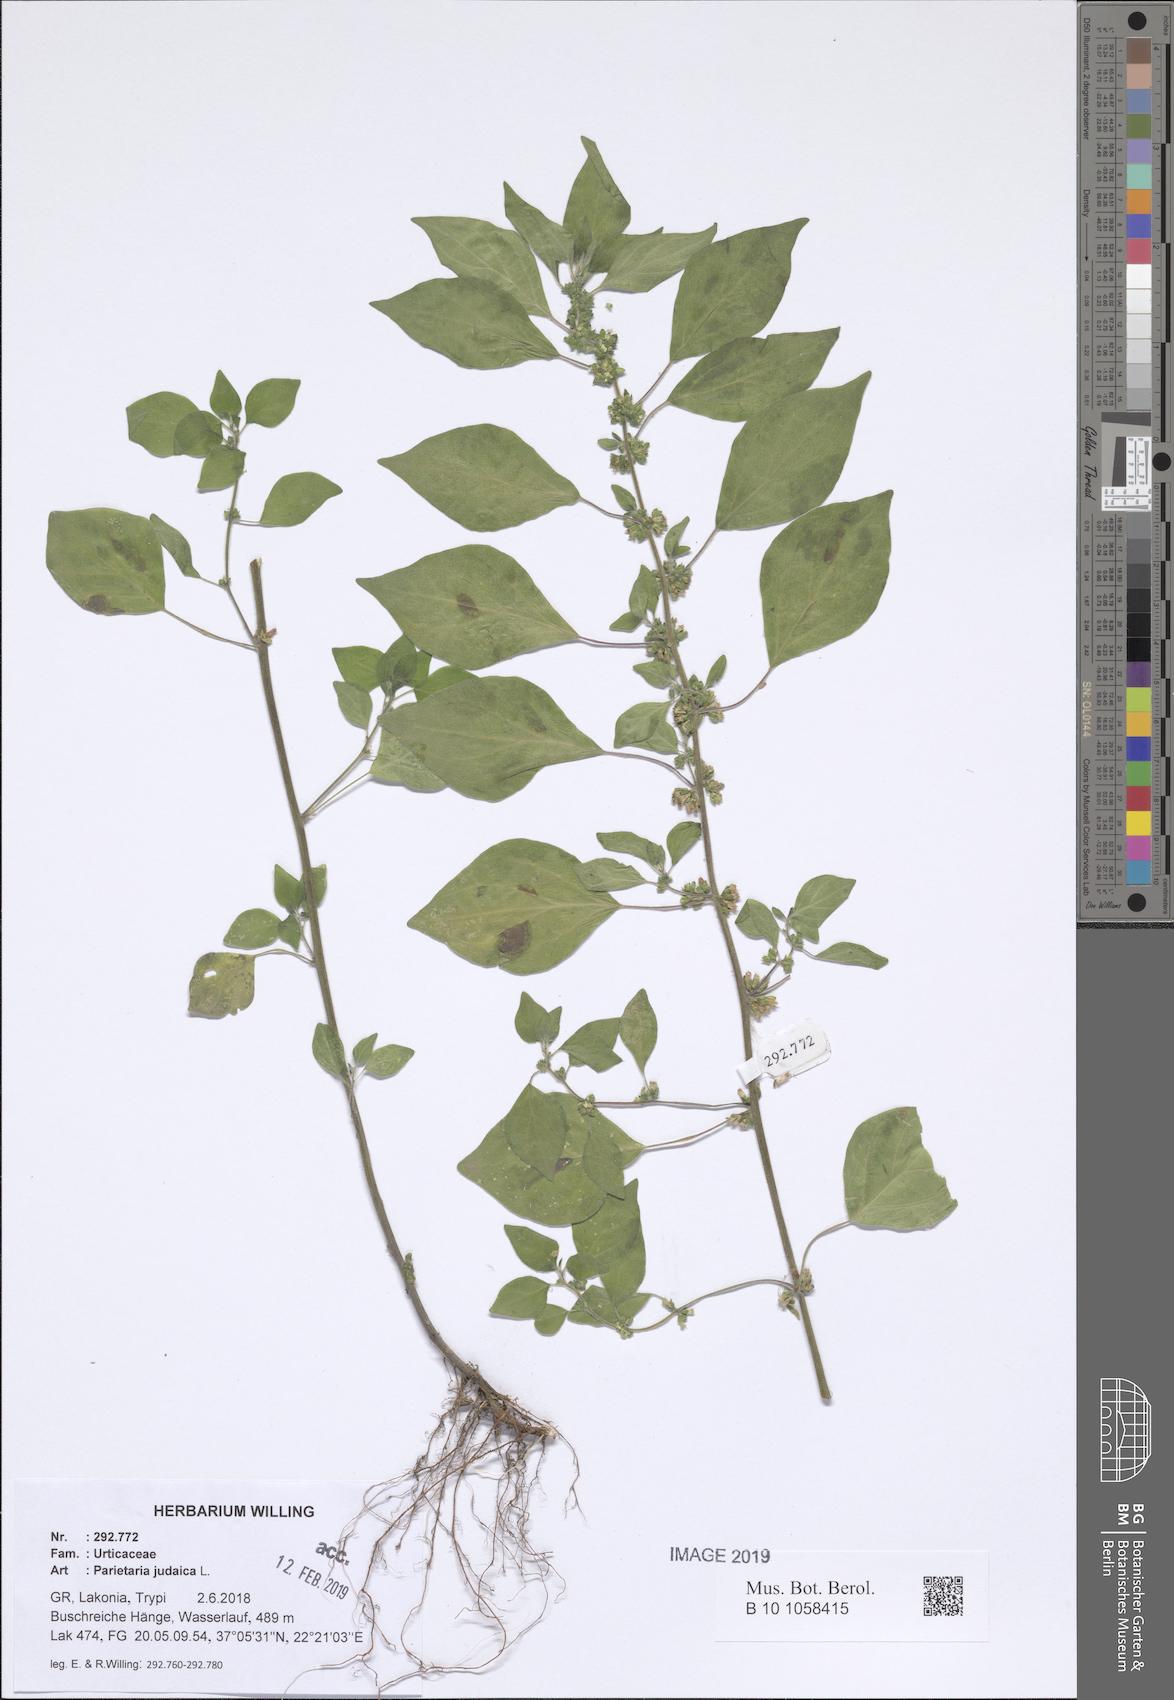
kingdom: Plantae
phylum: Tracheophyta
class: Magnoliopsida
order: Rosales
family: Urticaceae
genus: Parietaria
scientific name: Parietaria judaica
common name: Pellitory-of-the-wall
